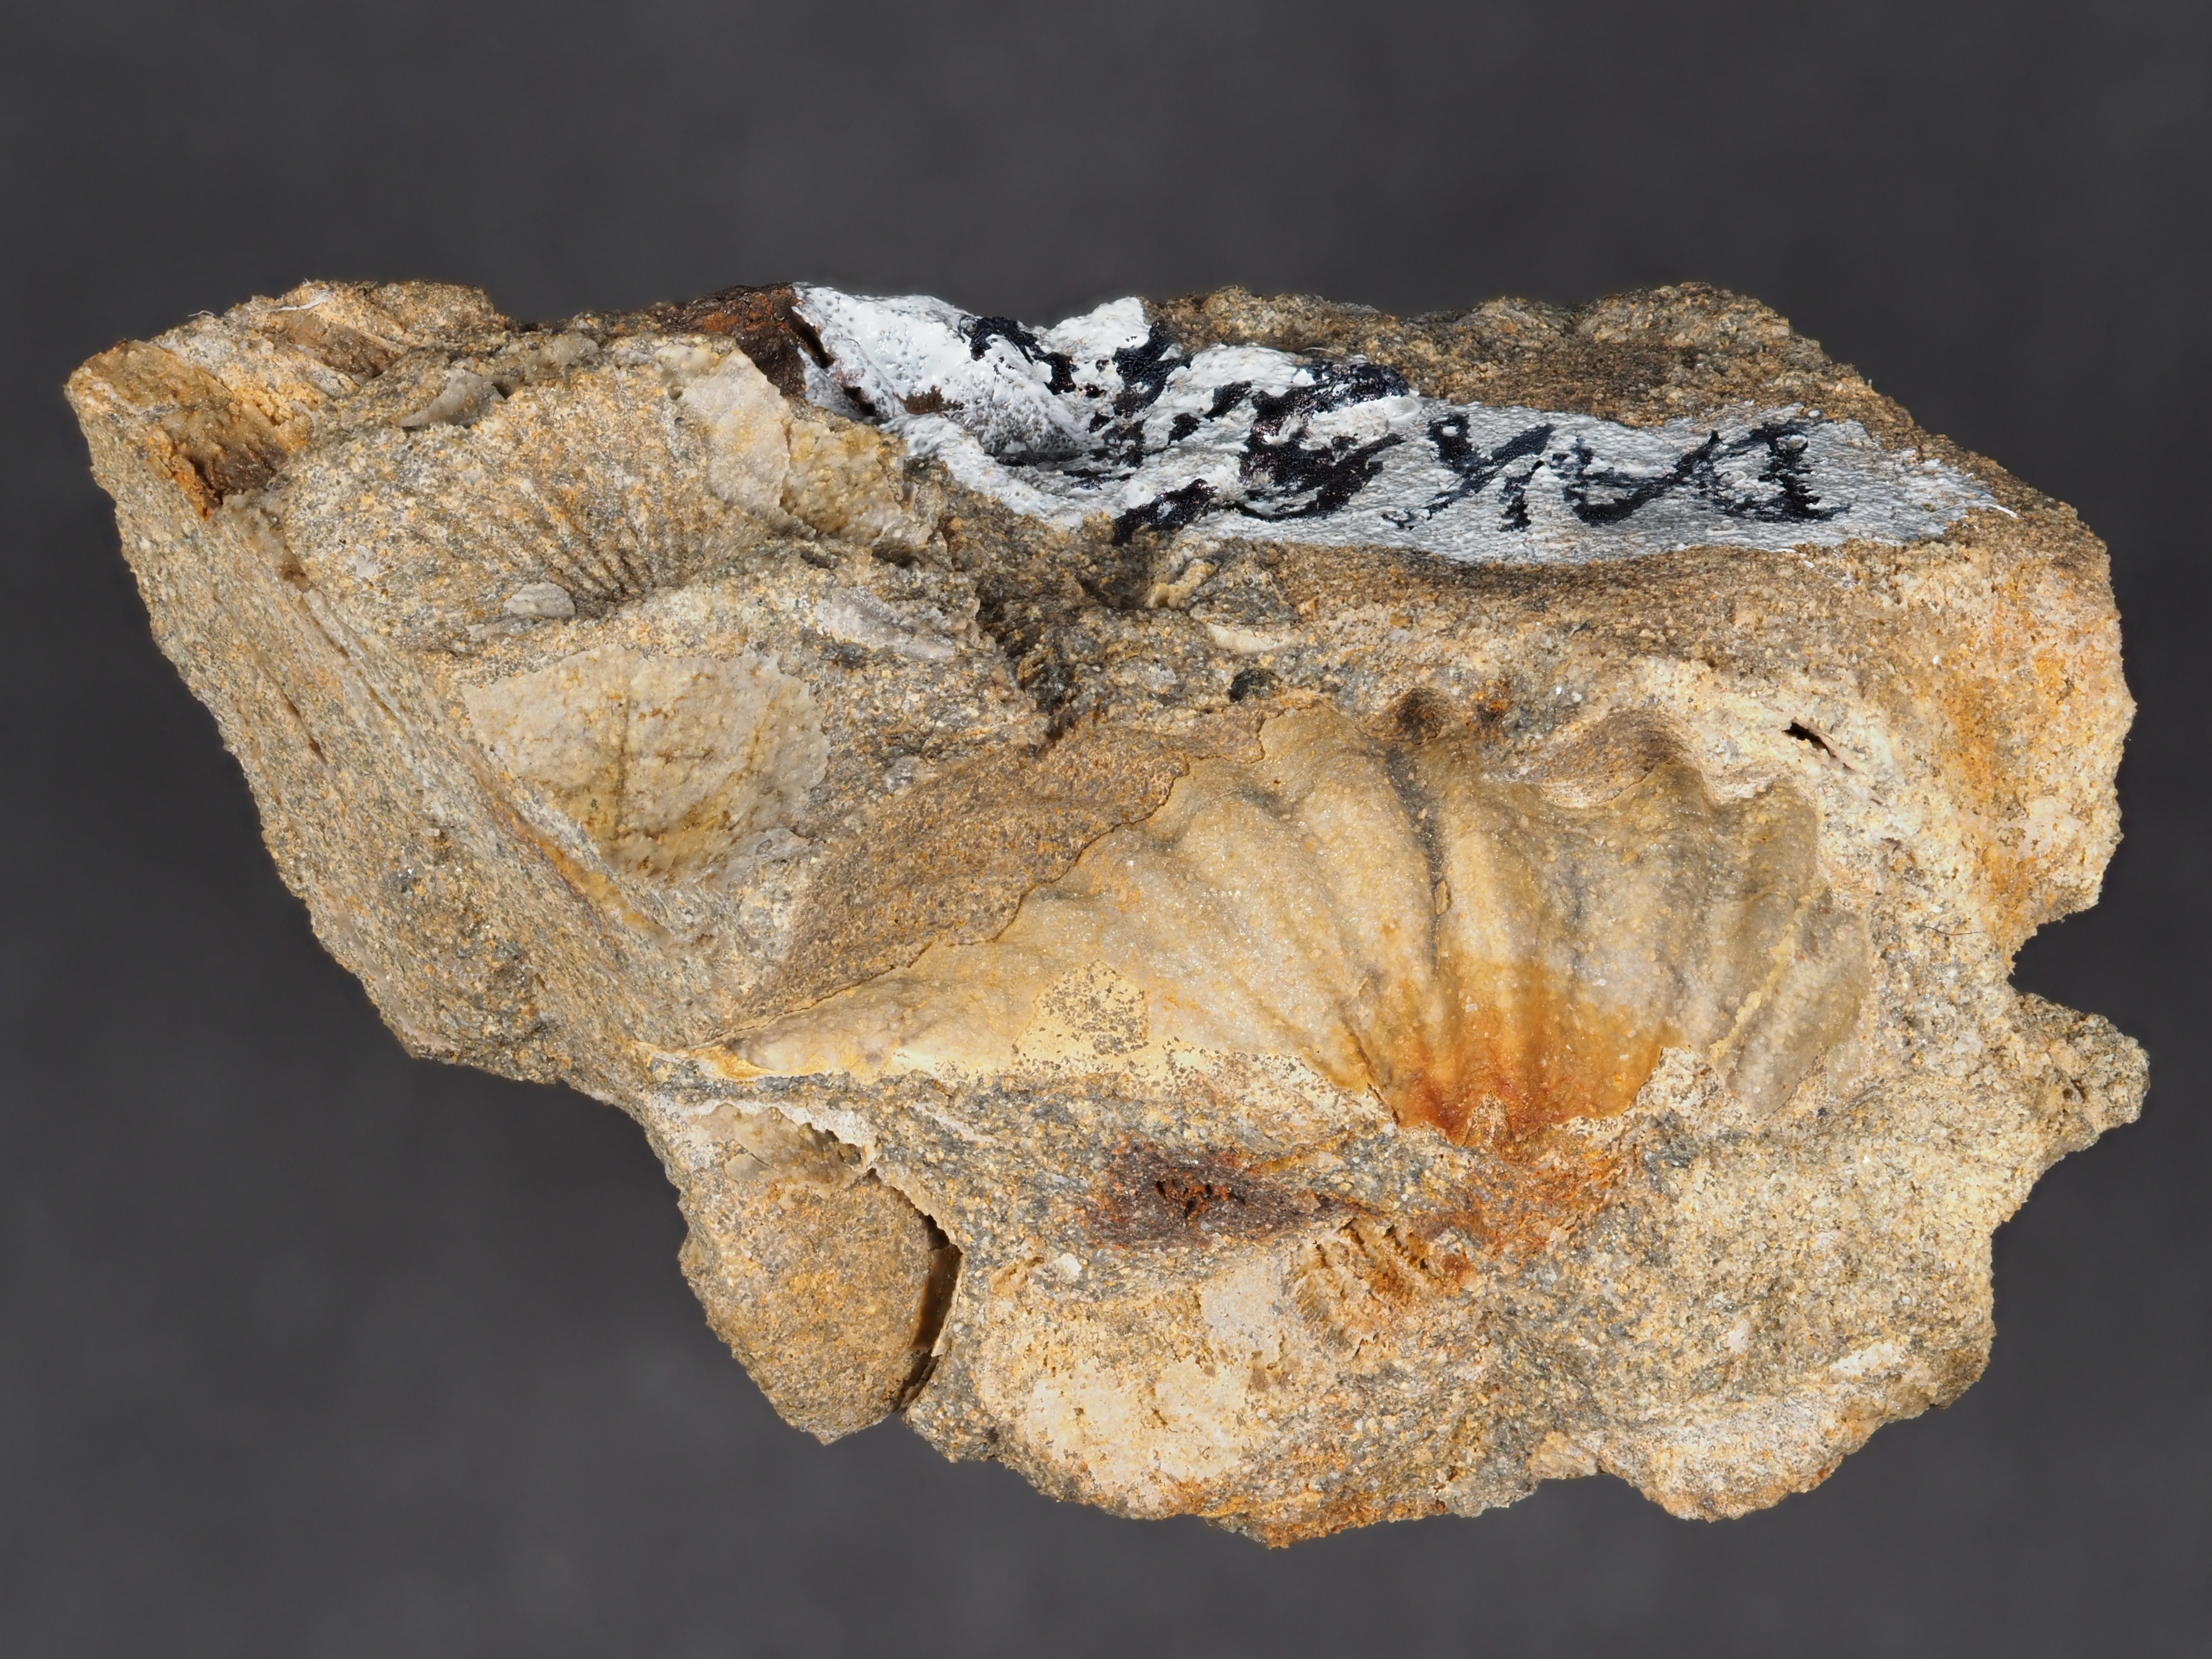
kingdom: Animalia
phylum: Brachiopoda
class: Rhynchonellata
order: Terebratulida
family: Mutationellidae
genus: Mutationella
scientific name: Mutationella
